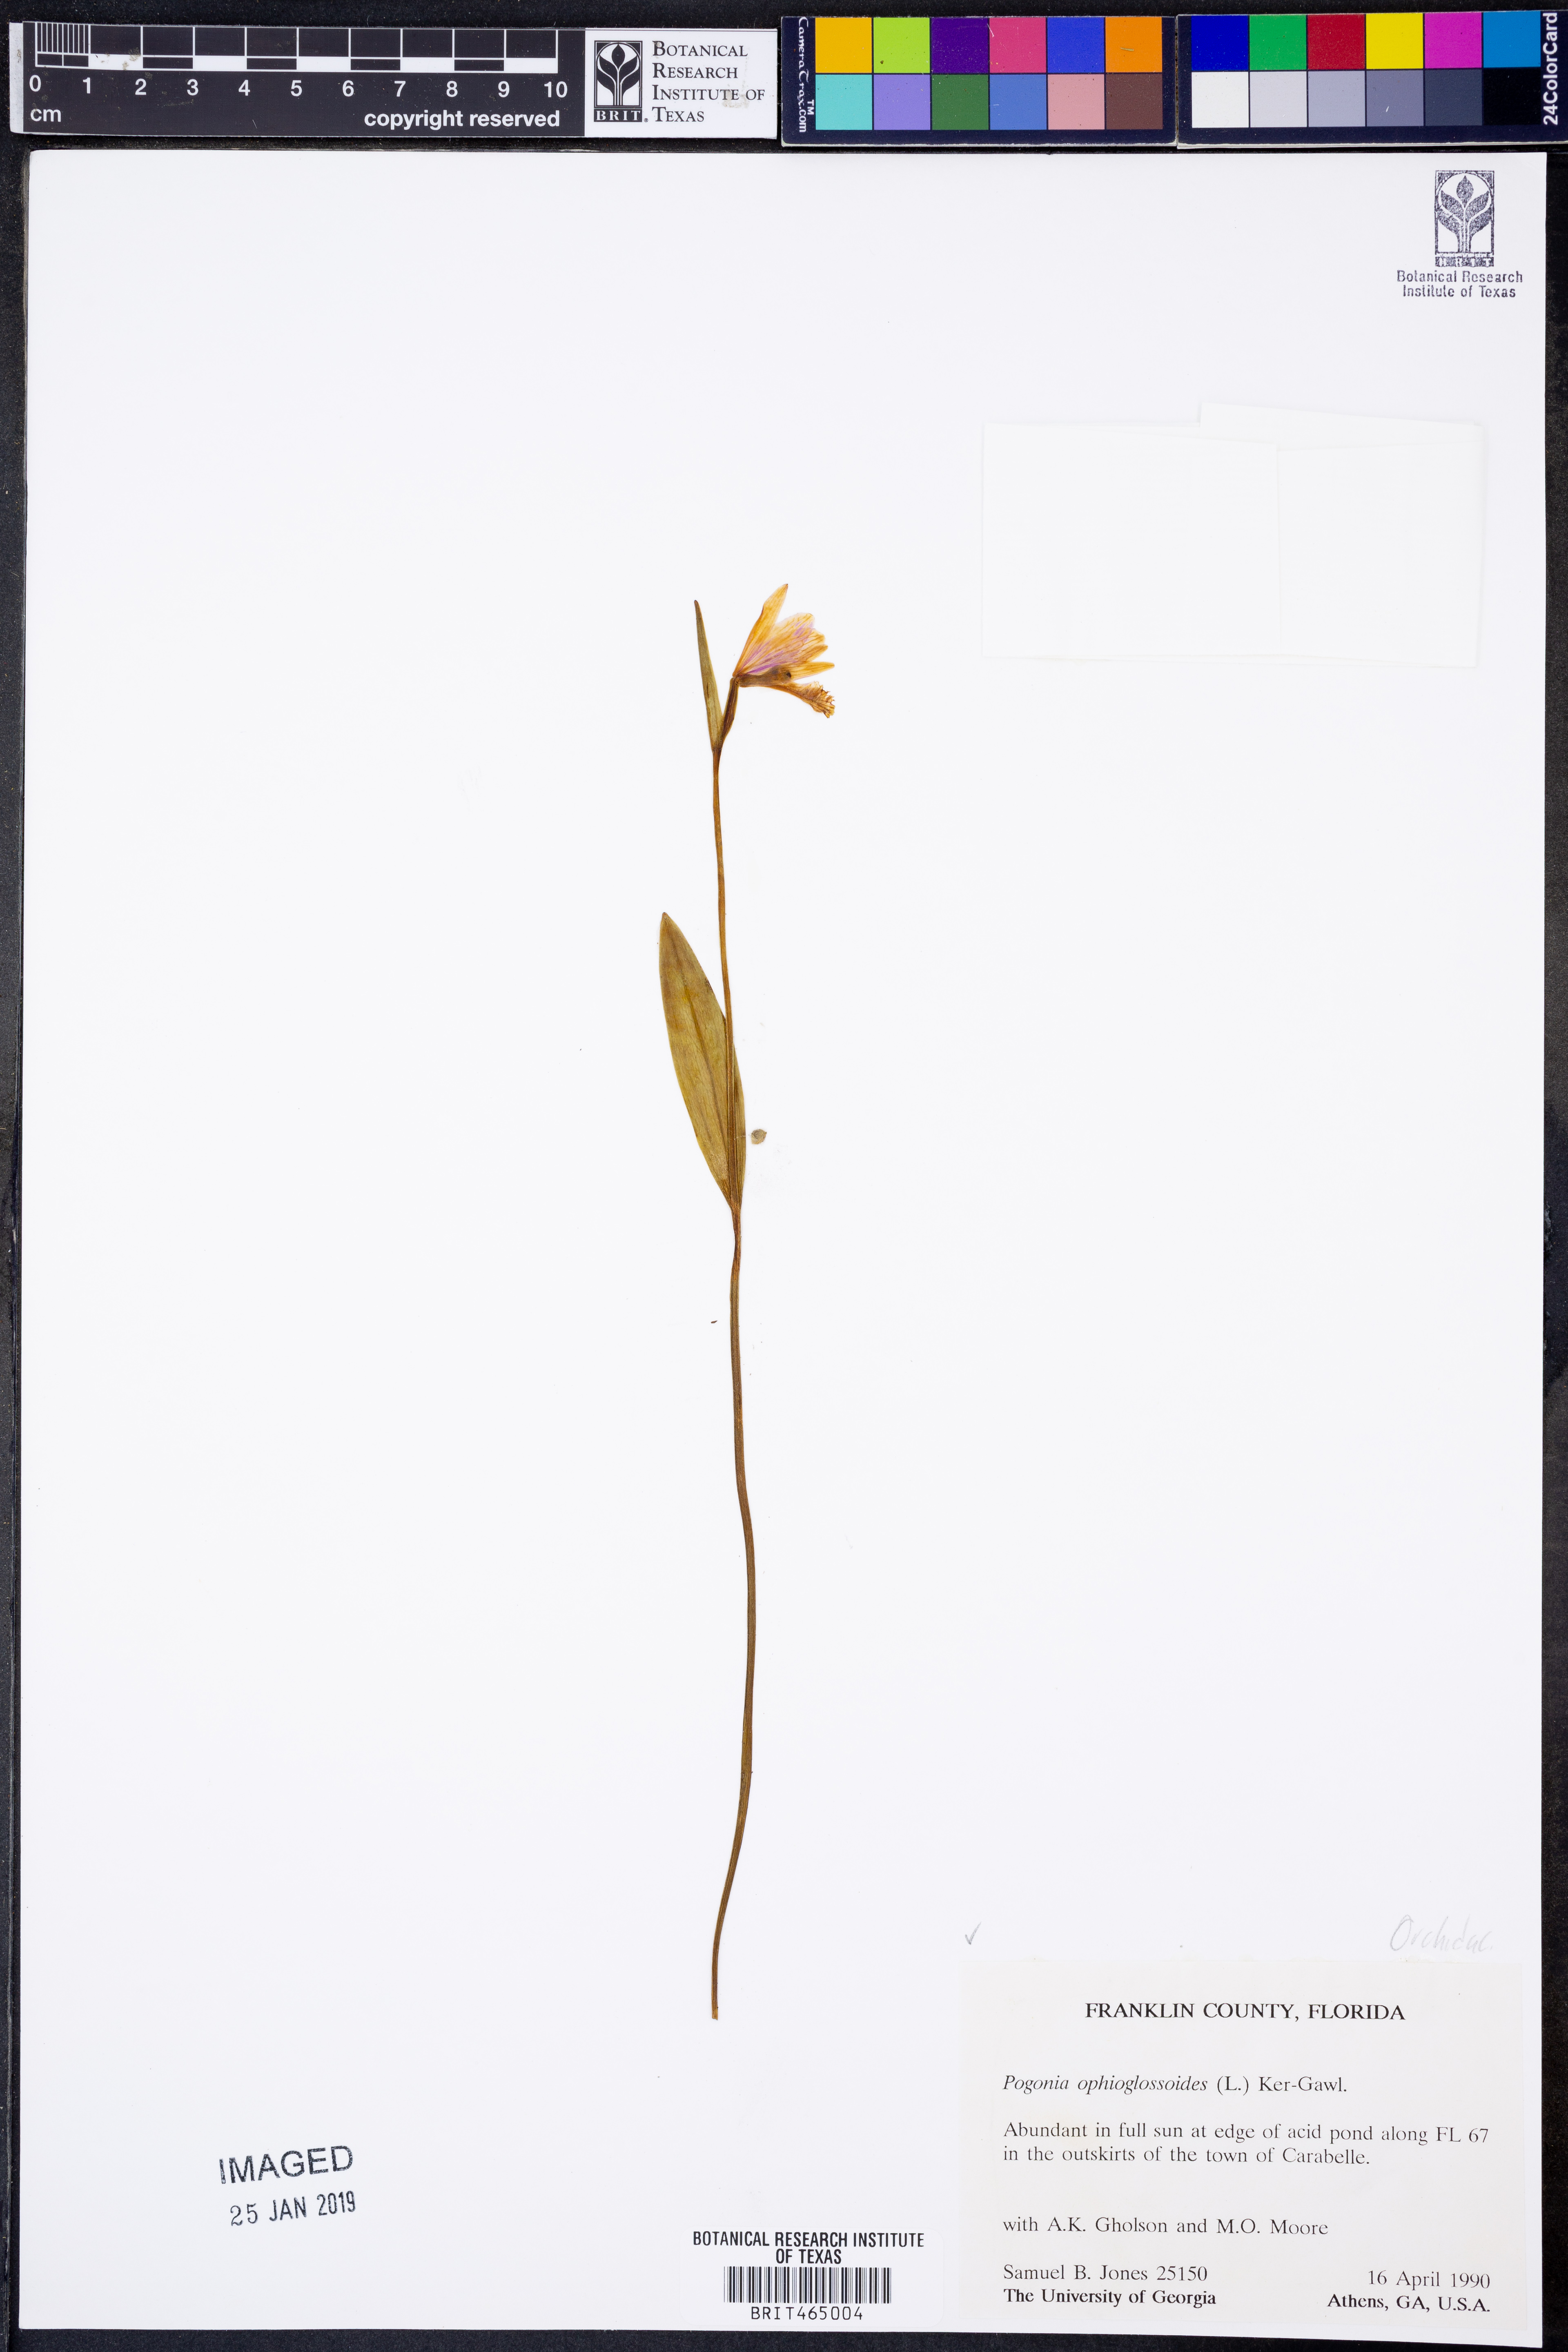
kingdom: Plantae
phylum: Tracheophyta
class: Liliopsida
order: Asparagales
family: Orchidaceae
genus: Pogonia
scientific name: Pogonia ophioglossoides
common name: Rose pogonia
